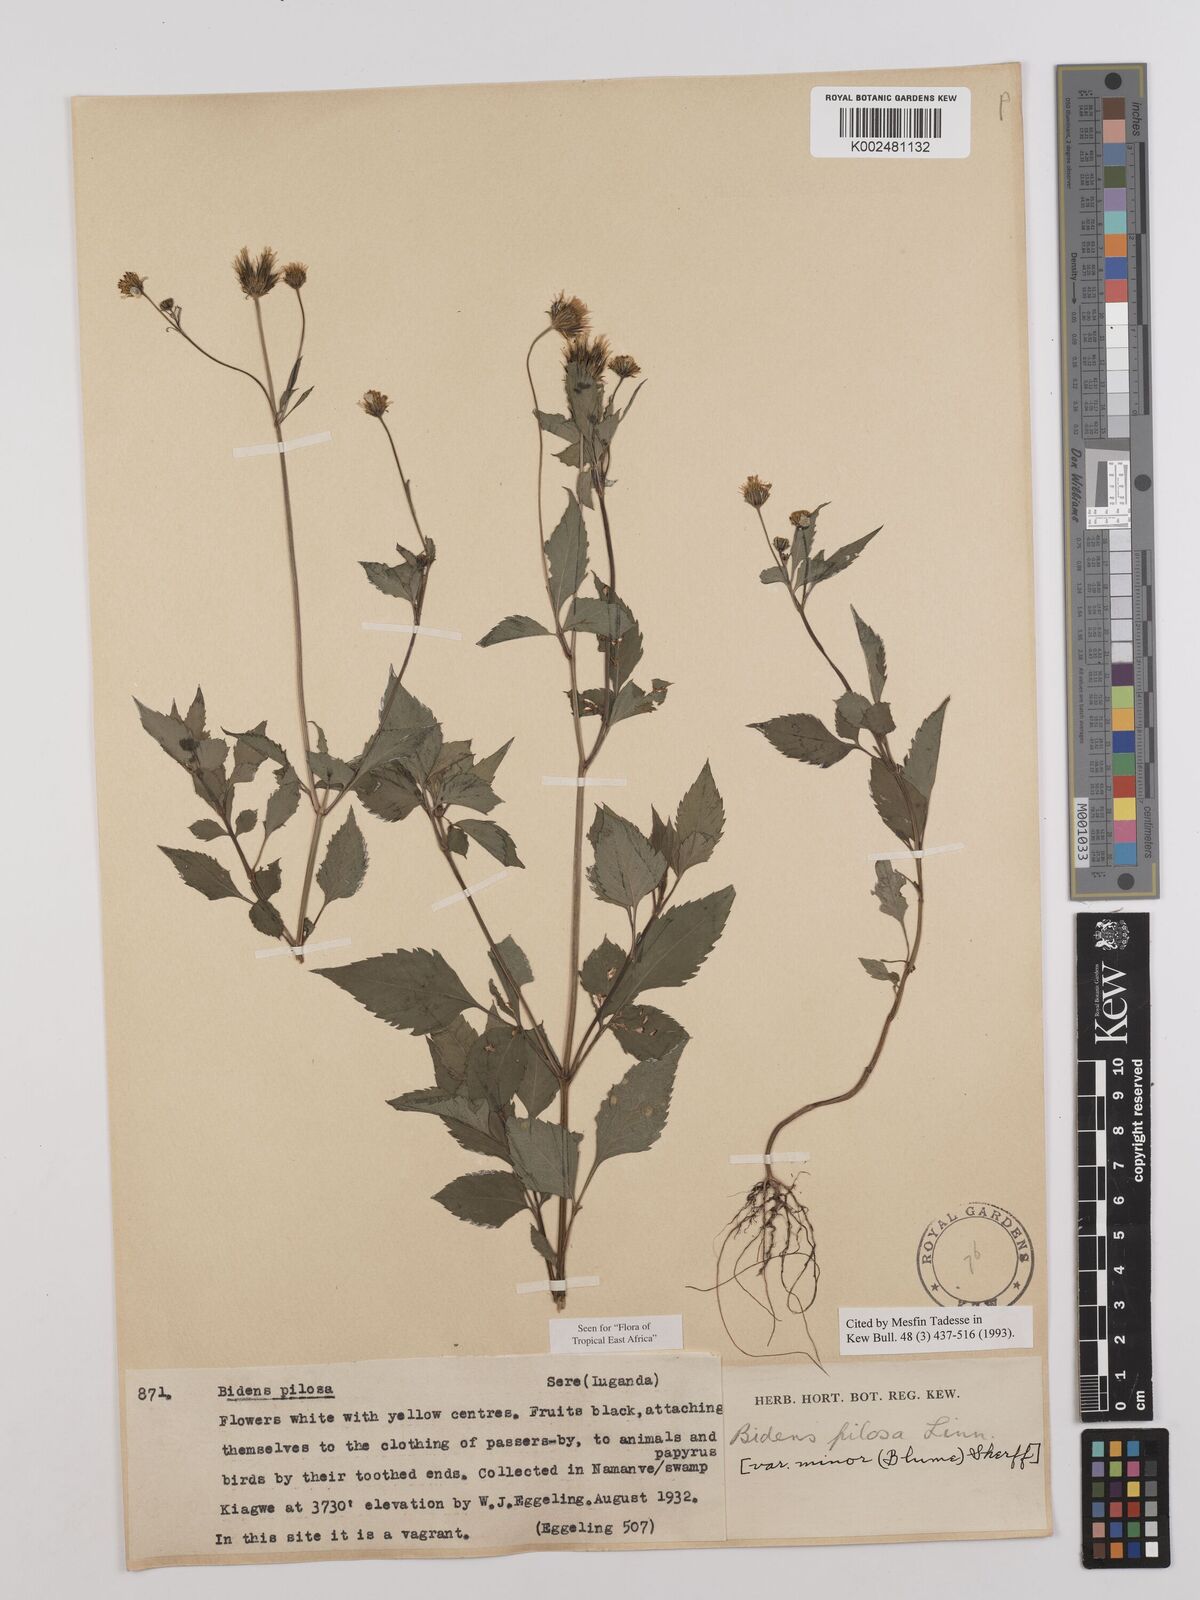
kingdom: Plantae
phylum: Tracheophyta
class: Magnoliopsida
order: Asterales
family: Asteraceae
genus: Bidens
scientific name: Bidens pilosa
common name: Black-jack
